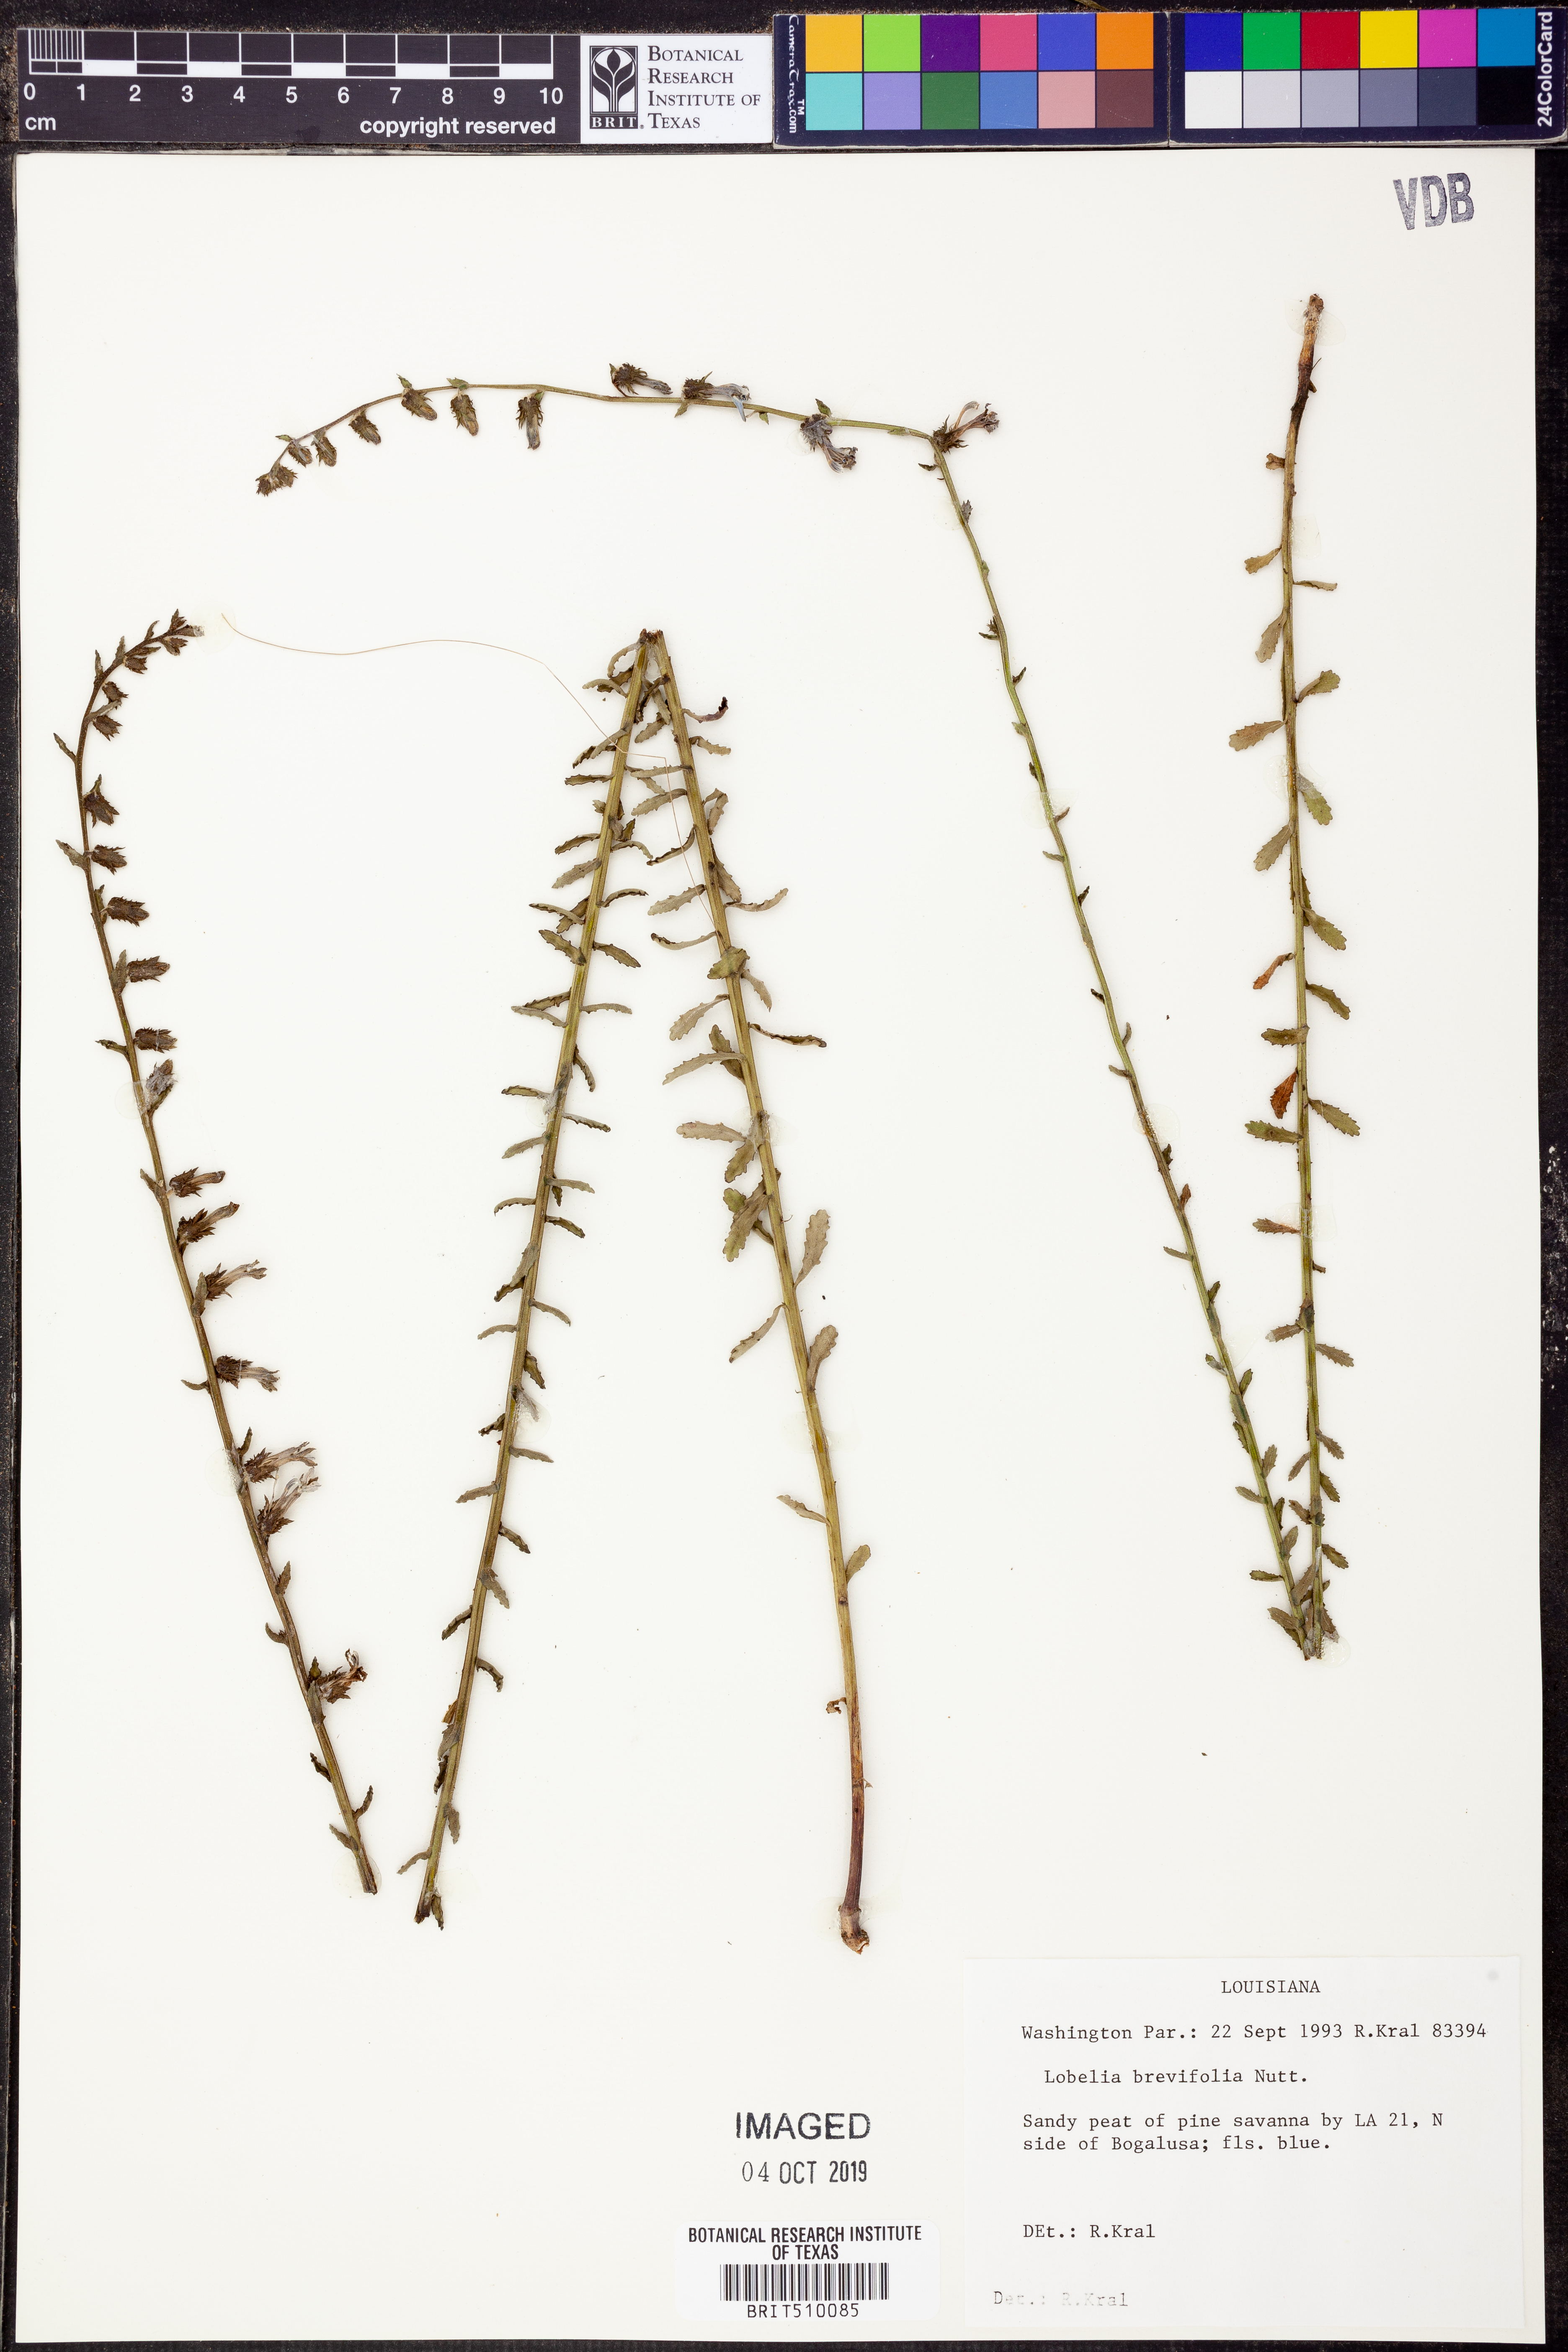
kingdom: Plantae
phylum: Tracheophyta
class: Magnoliopsida
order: Asterales
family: Campanulaceae
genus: Lobelia
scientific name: Lobelia brevifolia
